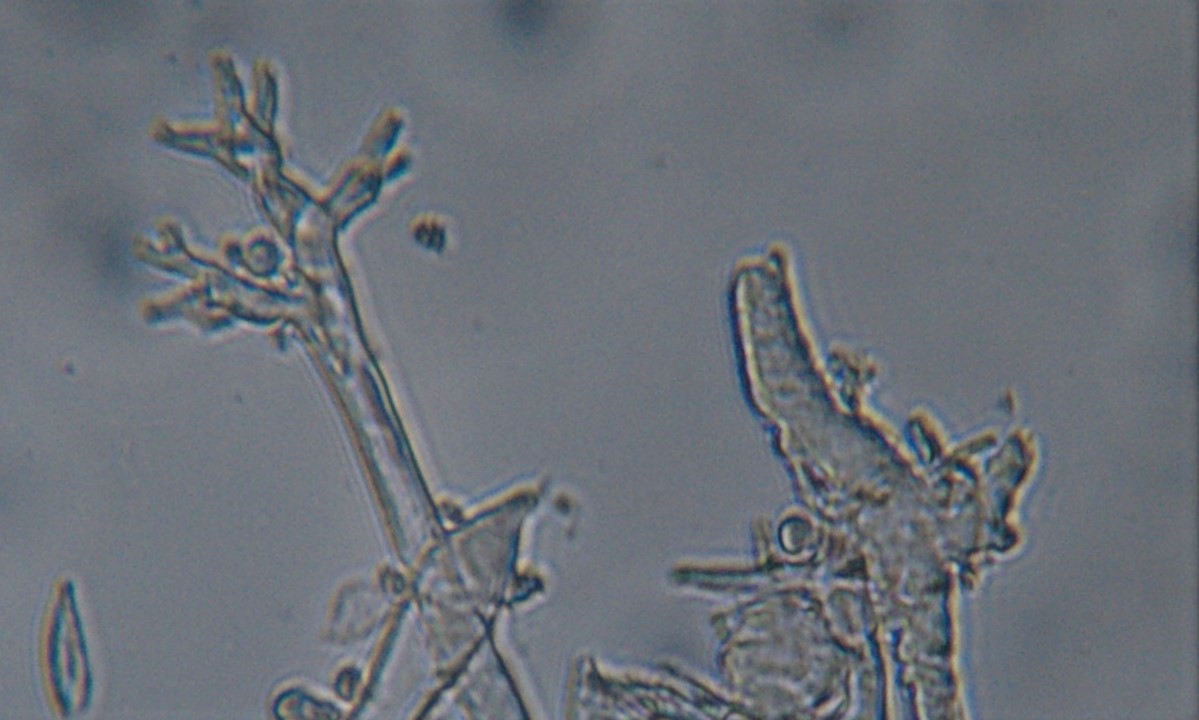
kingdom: Chromista
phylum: Oomycota
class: Peronosporea
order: Peronosporales
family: Peronosporaceae
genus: Peronospora
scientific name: Peronospora crustosa
